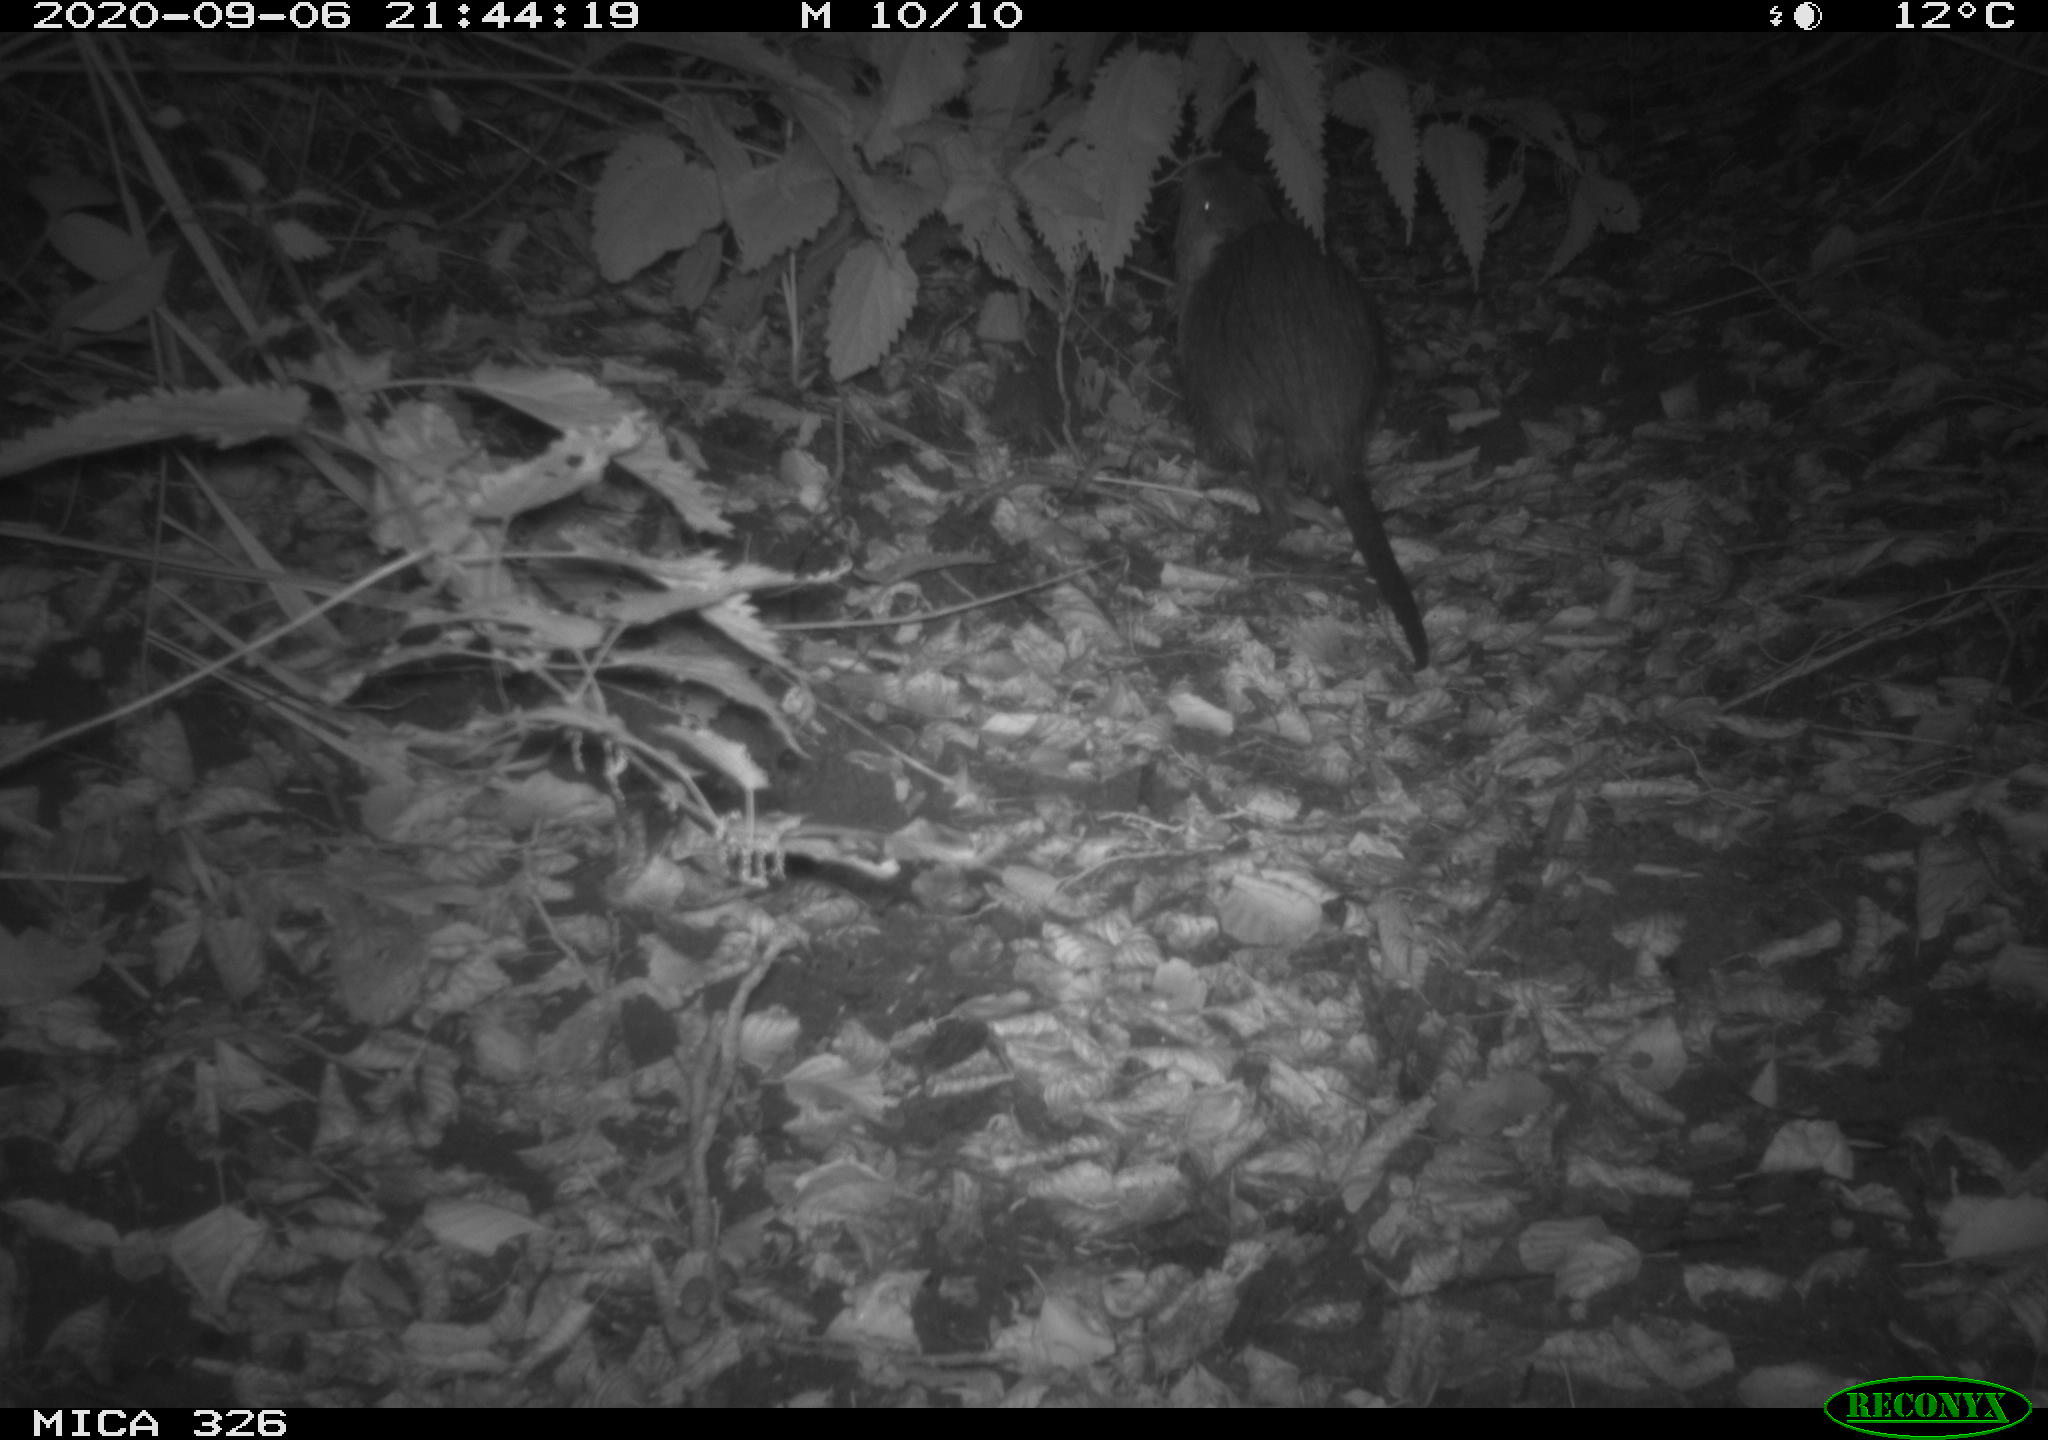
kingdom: Animalia
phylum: Chordata
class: Mammalia
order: Rodentia
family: Myocastoridae
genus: Myocastor
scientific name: Myocastor coypus
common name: Coypu
